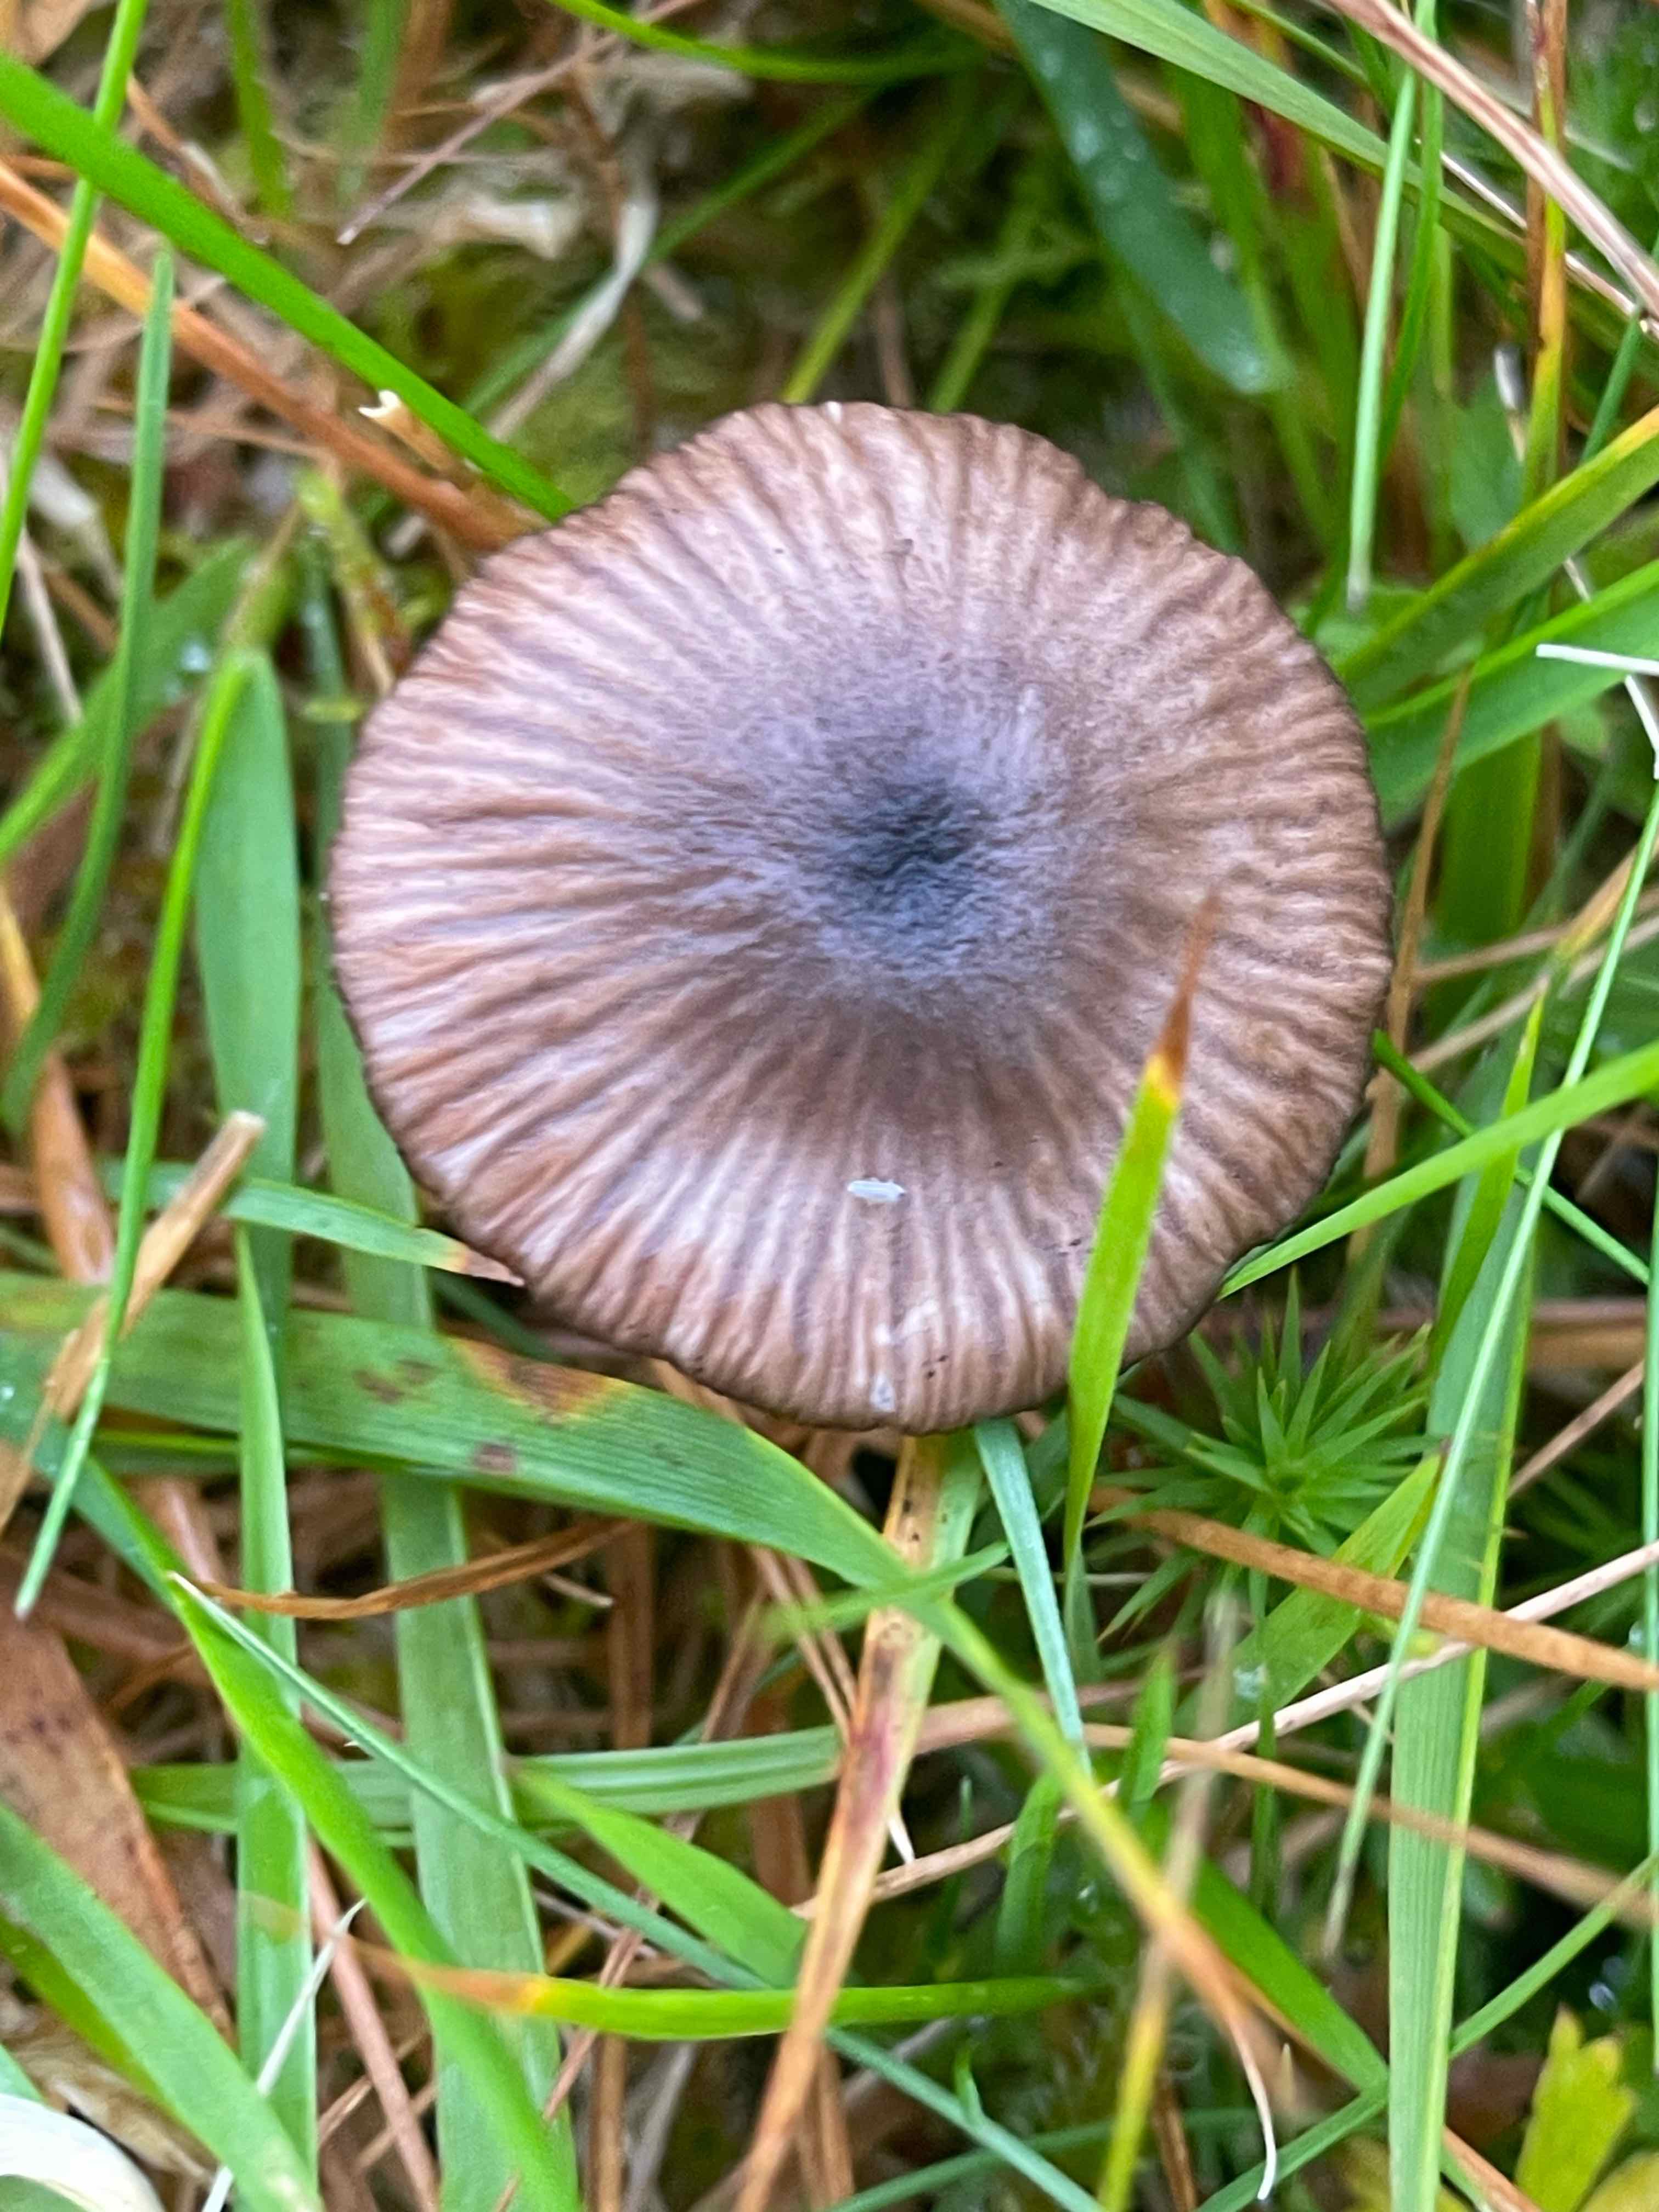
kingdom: Fungi
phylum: Basidiomycota
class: Agaricomycetes
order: Agaricales
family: Entolomataceae
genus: Entoloma
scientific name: Entoloma
